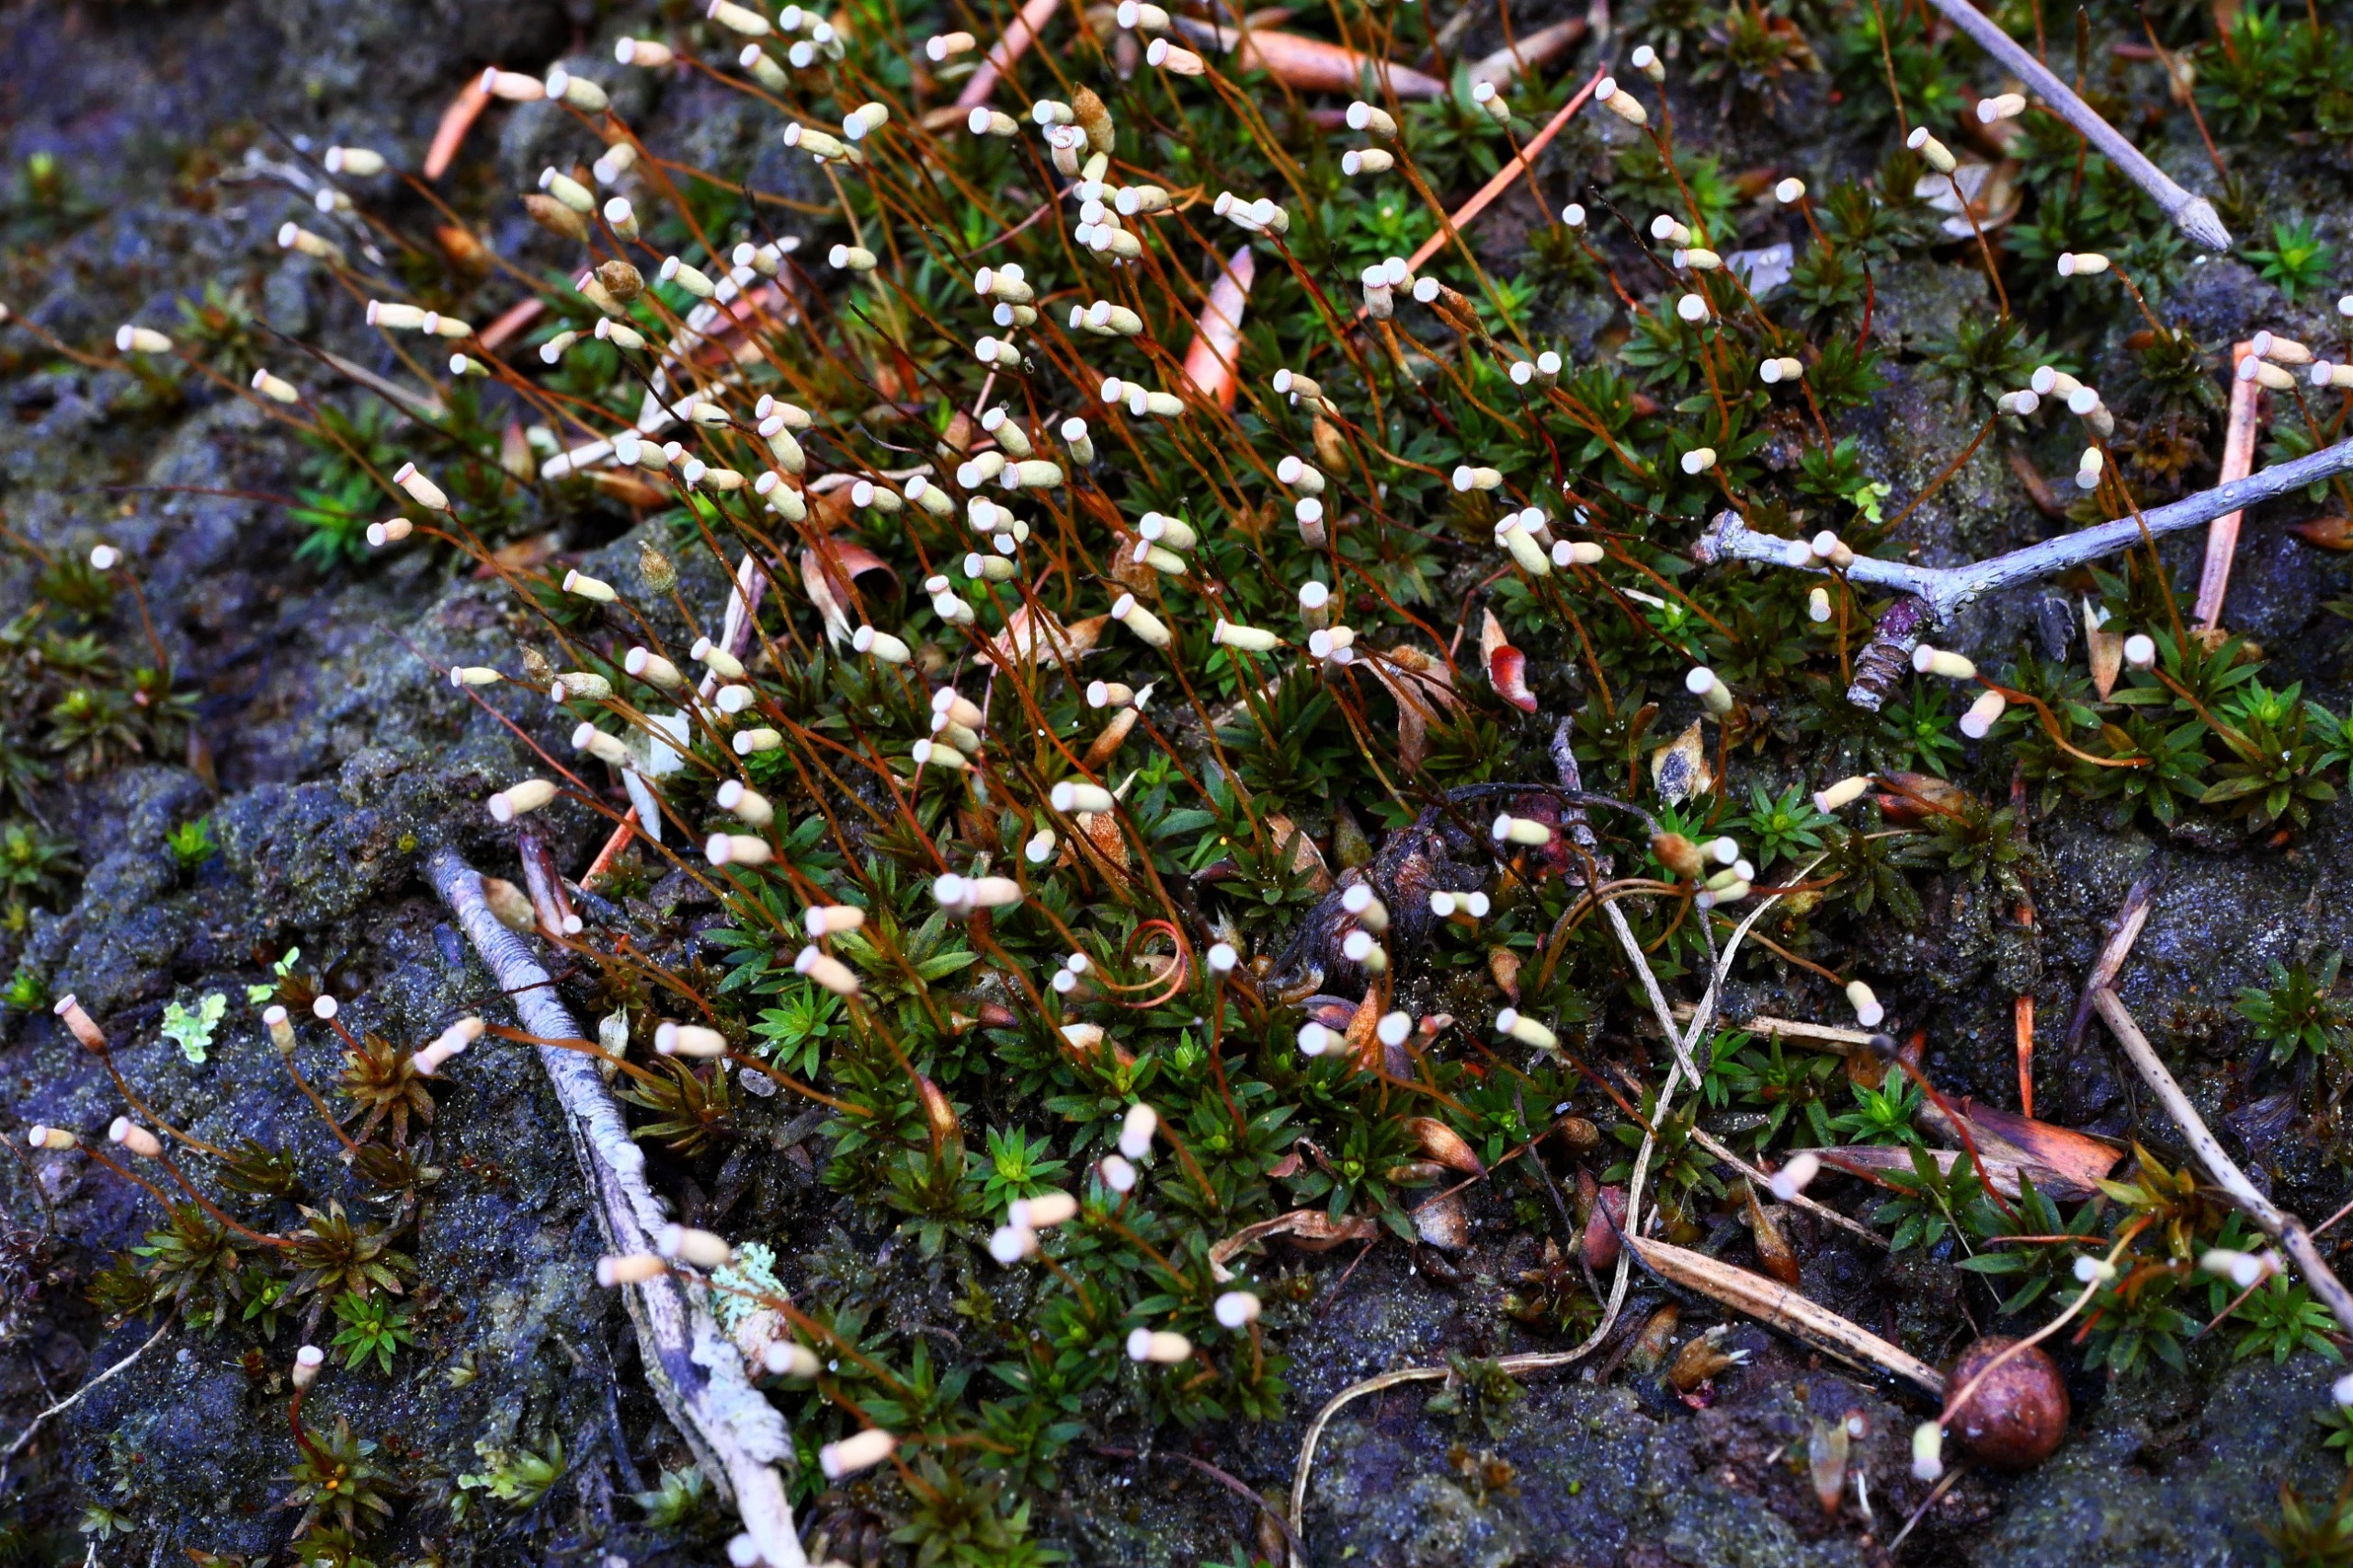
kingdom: Plantae
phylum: Bryophyta
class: Polytrichopsida
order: Polytrichales
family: Polytrichaceae
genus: Pogonatum
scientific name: Pogonatum aloides
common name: Smal urnekapsel
